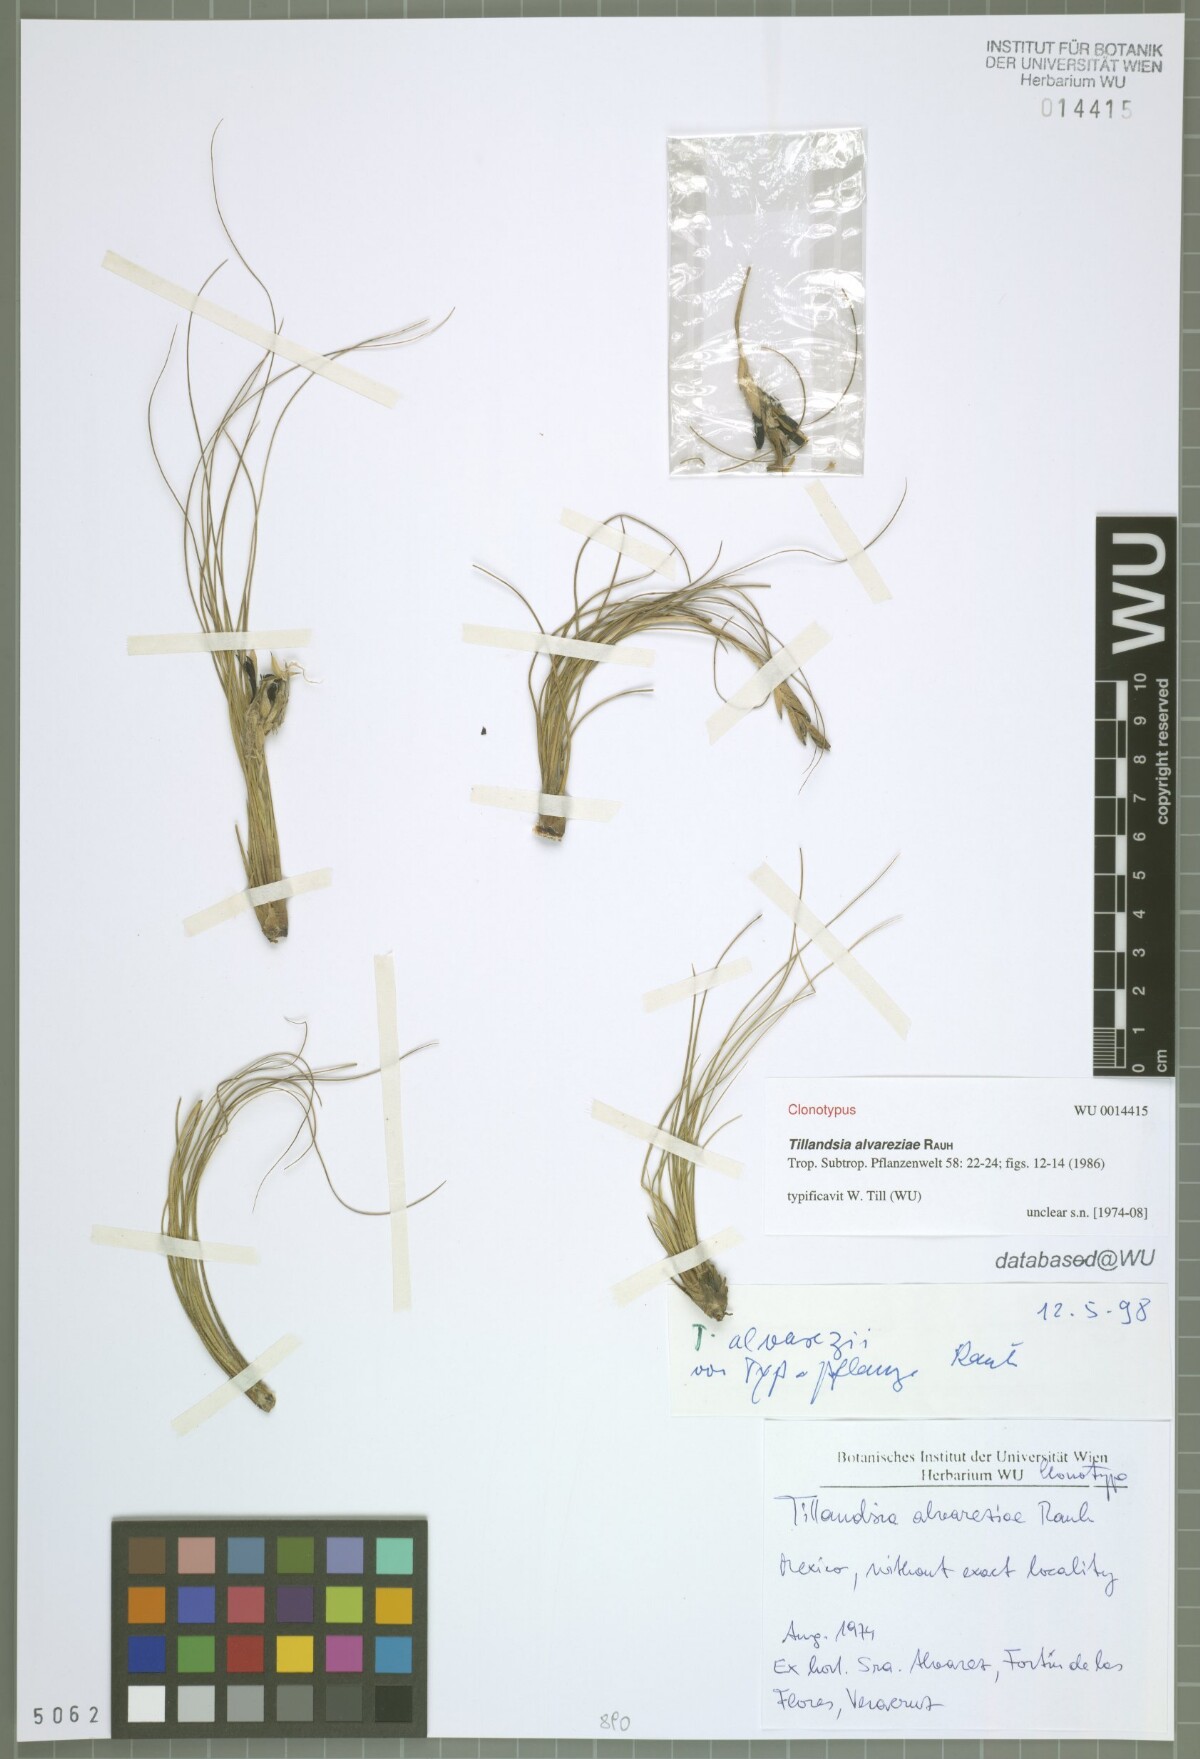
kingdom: Plantae
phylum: Tracheophyta
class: Liliopsida
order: Poales
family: Bromeliaceae
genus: Tillandsia
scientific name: Tillandsia alvareziae
